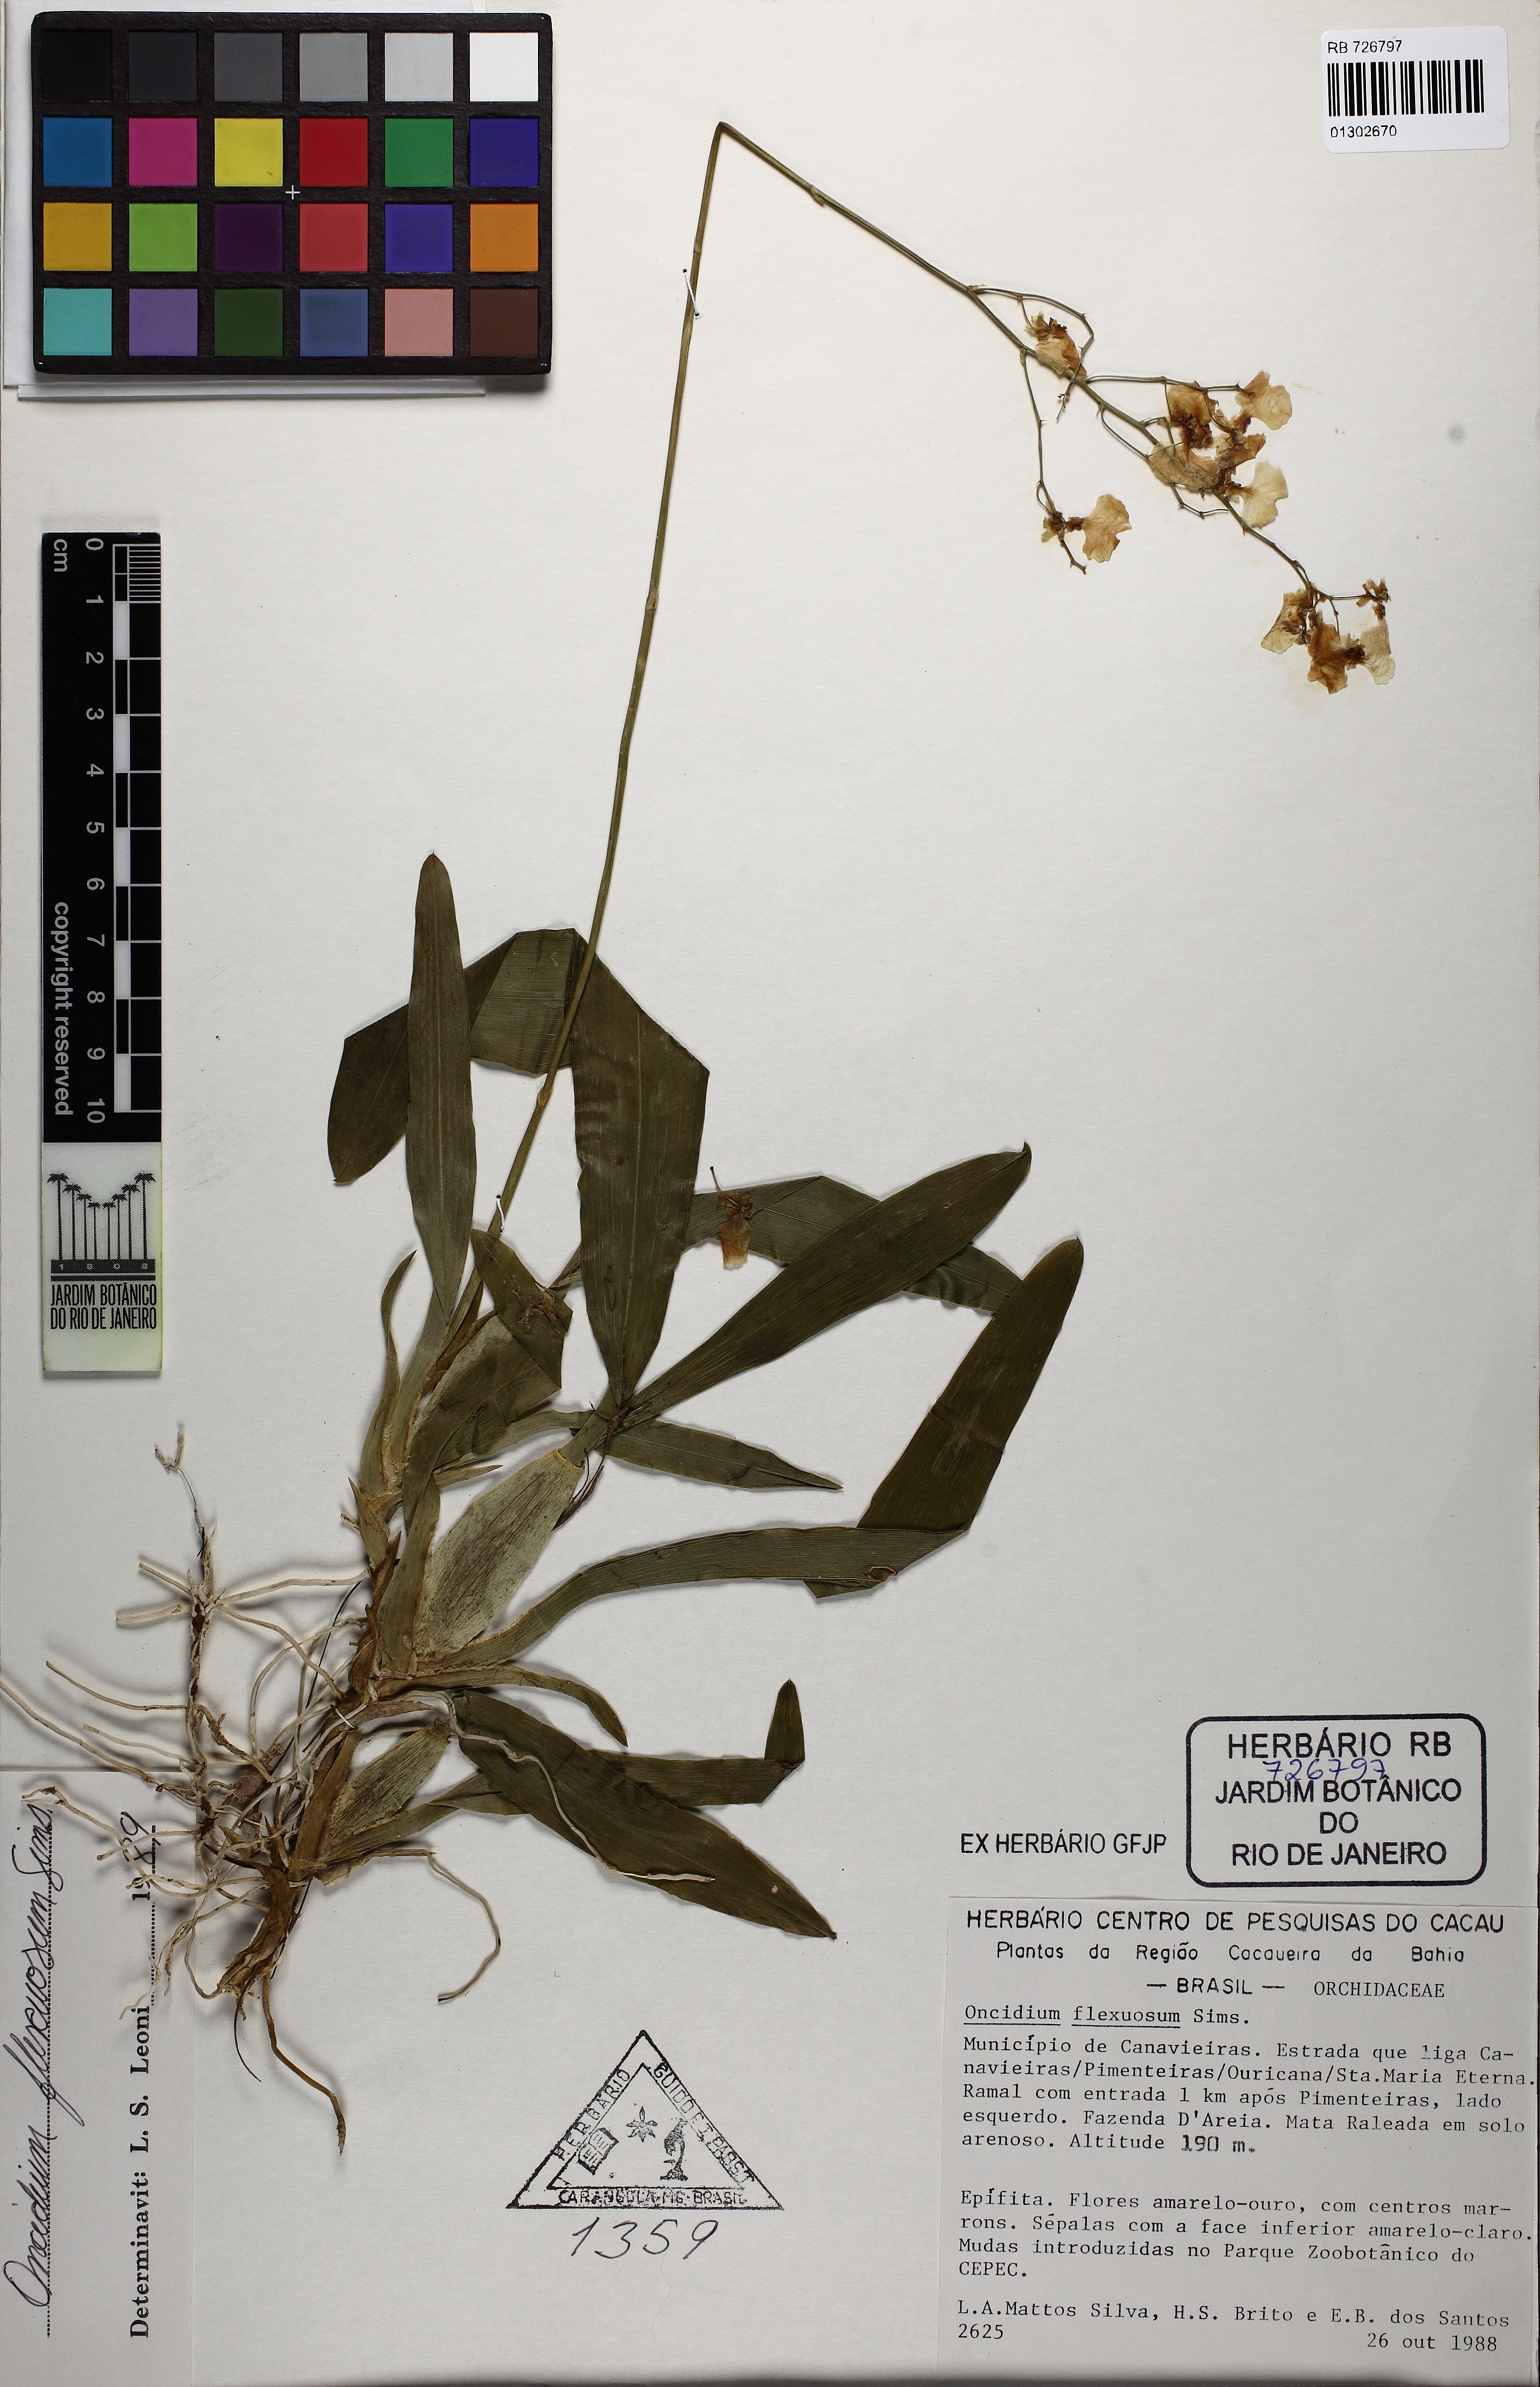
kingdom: Plantae
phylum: Tracheophyta
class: Liliopsida
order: Asparagales
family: Orchidaceae
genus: Gomesa
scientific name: Gomesa flexuosa
